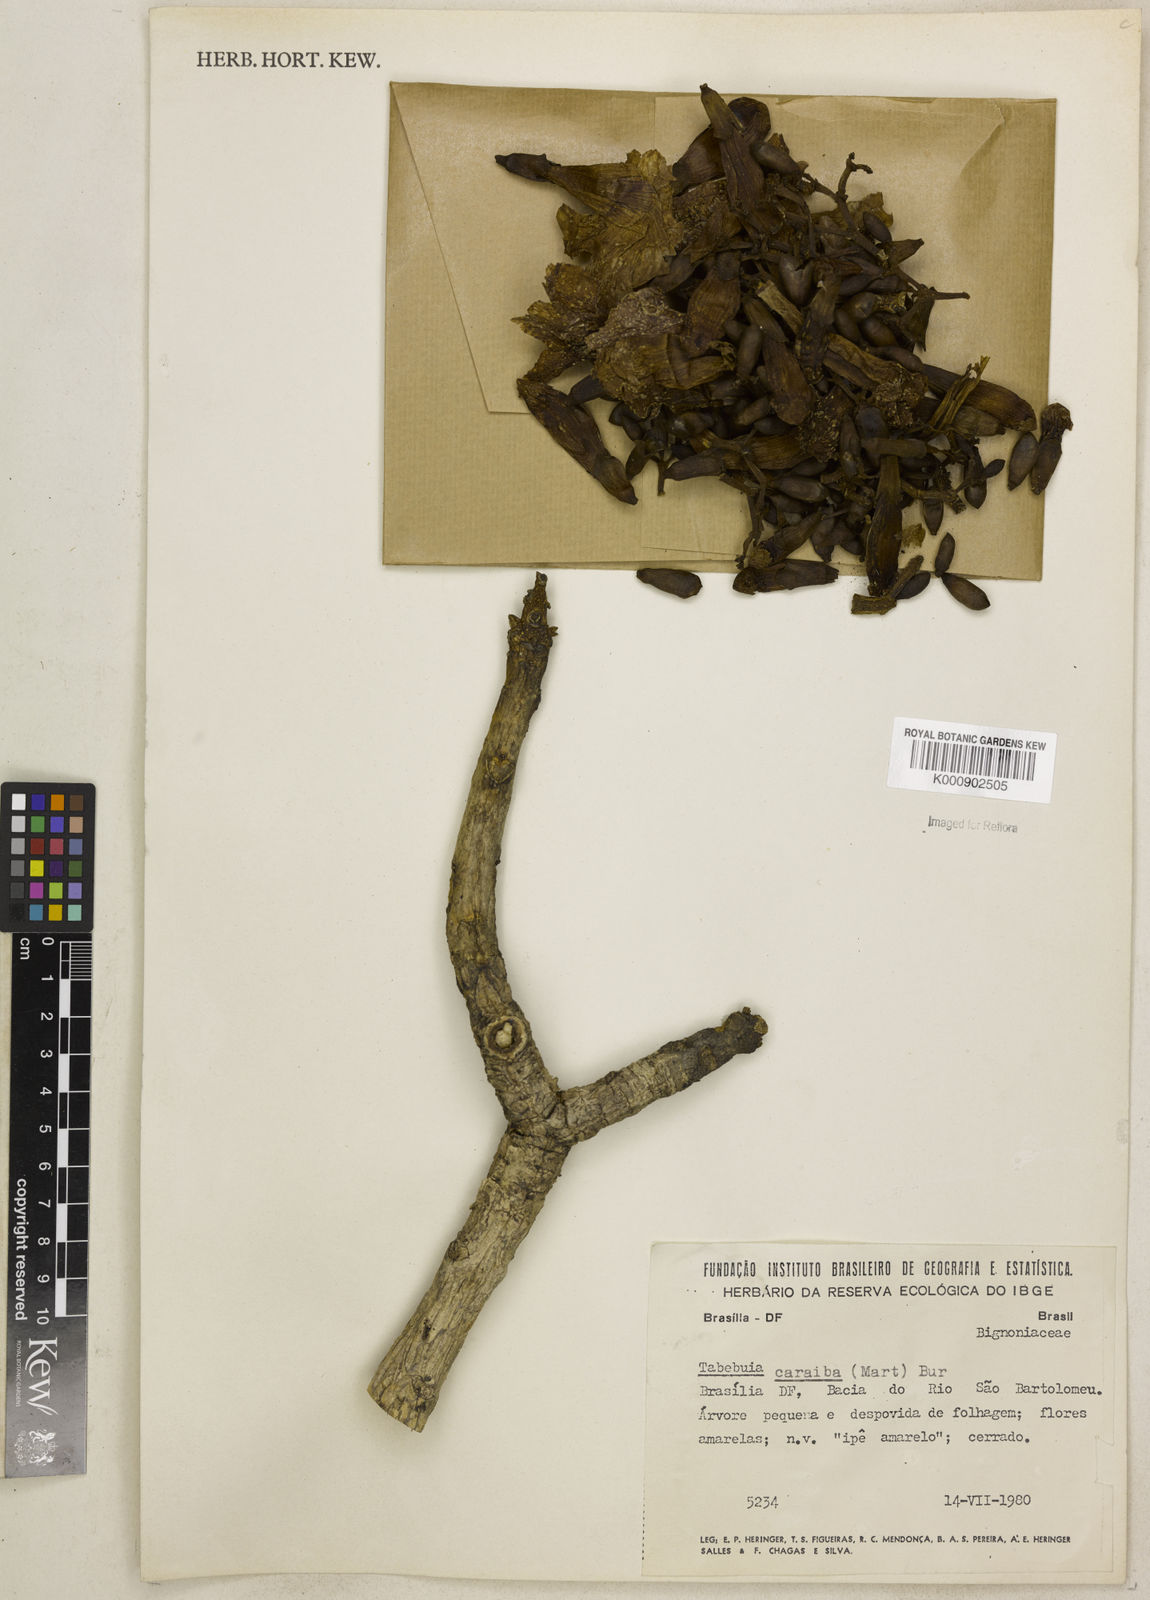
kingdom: Plantae
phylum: Tracheophyta
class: Magnoliopsida
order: Lamiales
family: Bignoniaceae
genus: Tabebuia
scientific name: Tabebuia aurea
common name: Caribbean trumpet-tree
